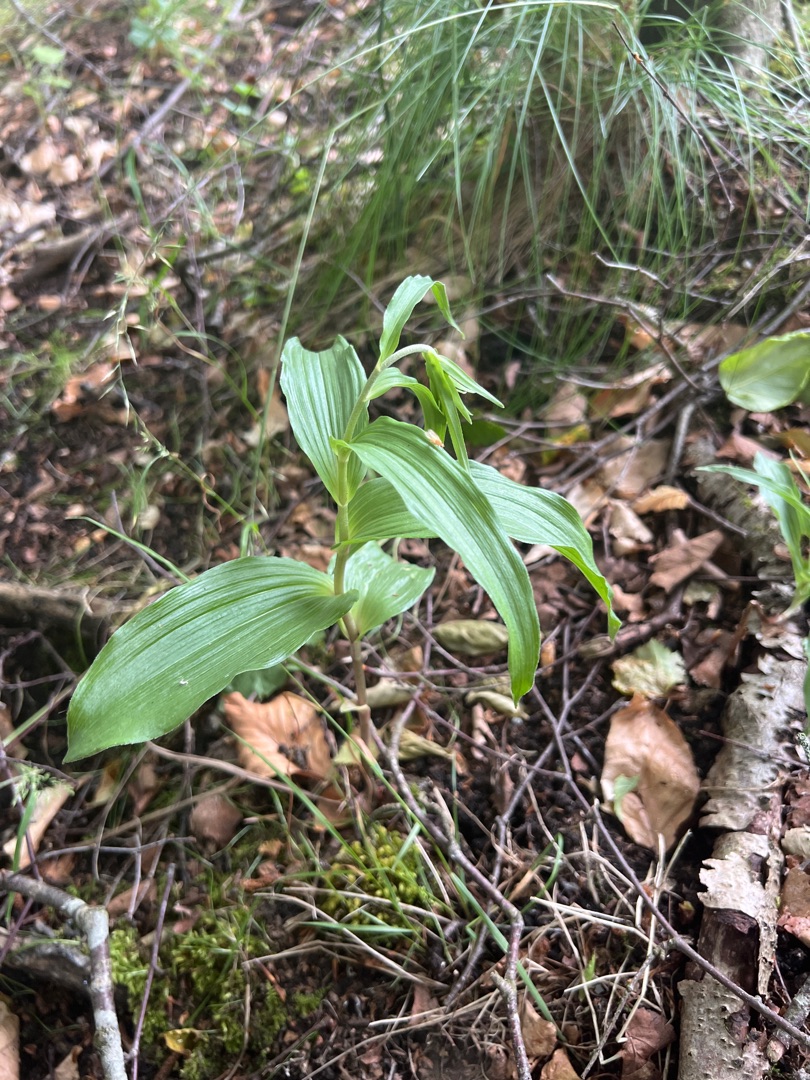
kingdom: Plantae
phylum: Tracheophyta
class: Liliopsida
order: Asparagales
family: Orchidaceae
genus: Epipactis
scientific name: Epipactis helleborine
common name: Skov-hullæbe
